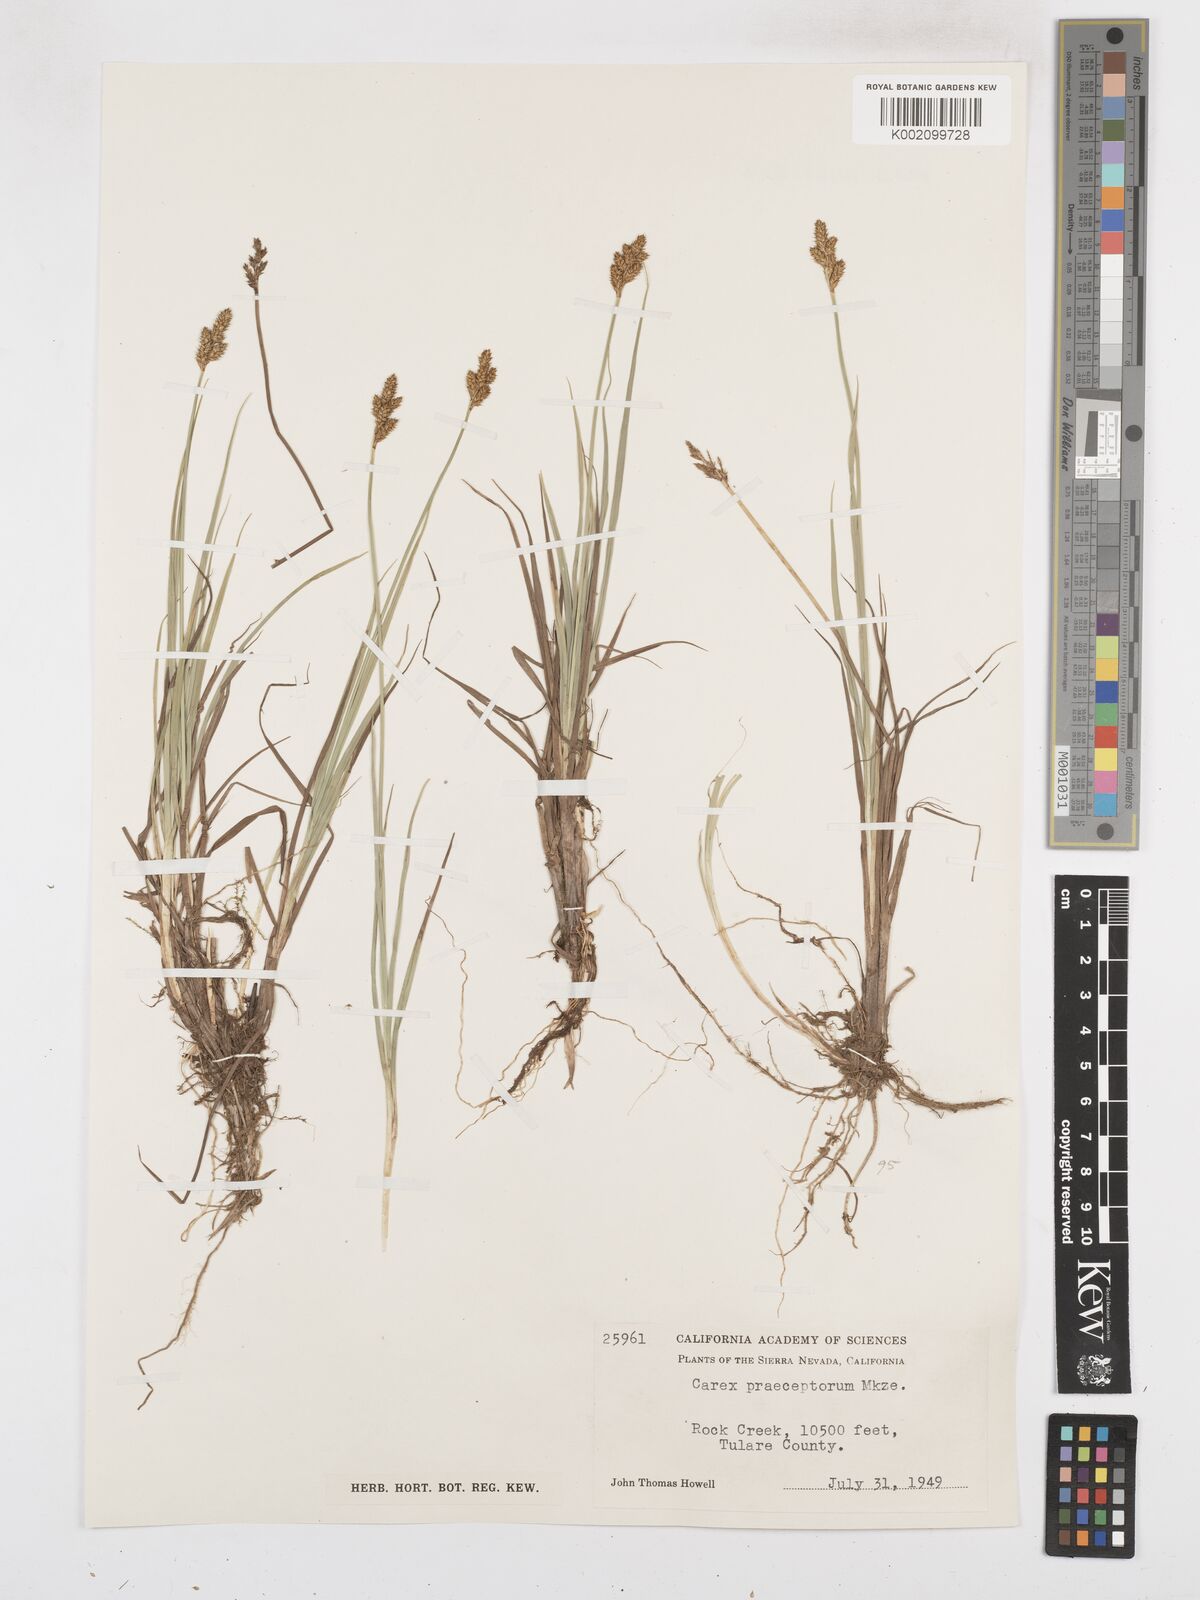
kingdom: Plantae
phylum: Tracheophyta
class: Liliopsida
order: Poales
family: Cyperaceae
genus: Carex
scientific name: Carex praeceptorum
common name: Early sedge
